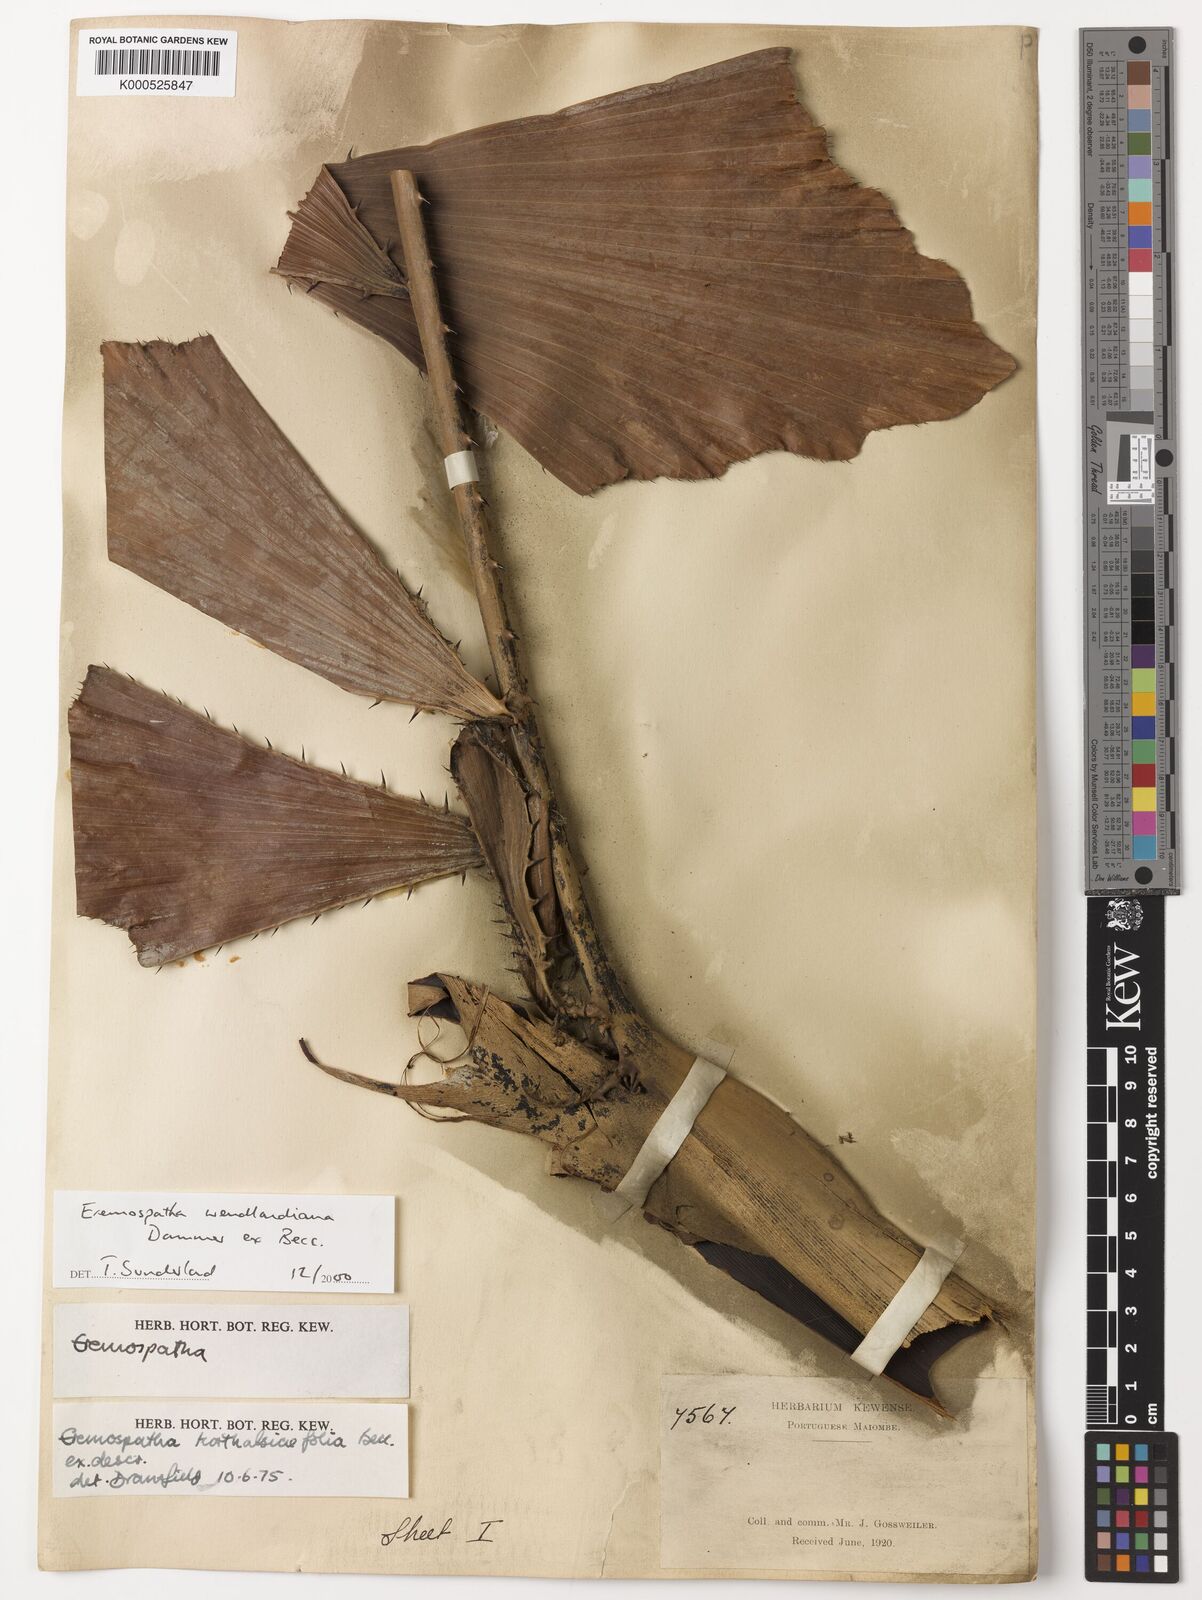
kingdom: Plantae
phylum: Tracheophyta
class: Liliopsida
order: Arecales
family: Arecaceae
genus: Eremospatha
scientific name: Eremospatha
